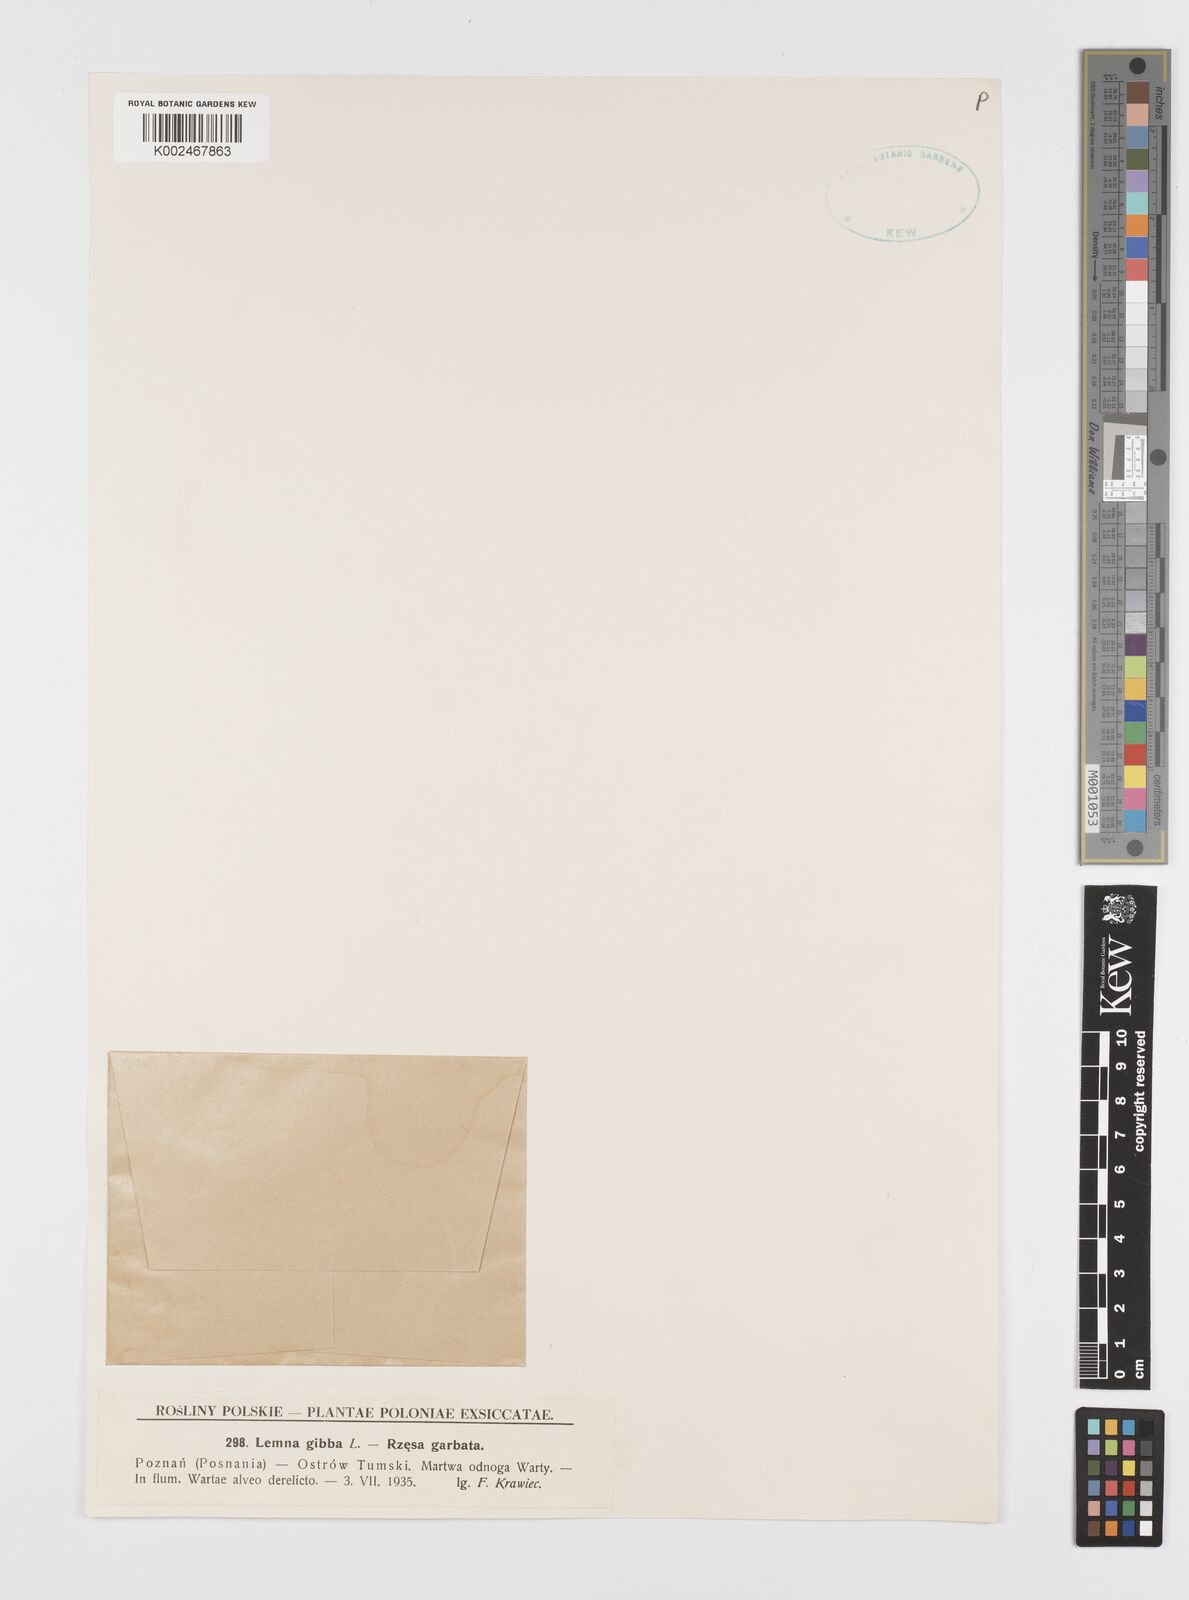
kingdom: Plantae
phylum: Tracheophyta
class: Liliopsida
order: Alismatales
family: Araceae
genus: Lemna
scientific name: Lemna gibba
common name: Fat duckweed
